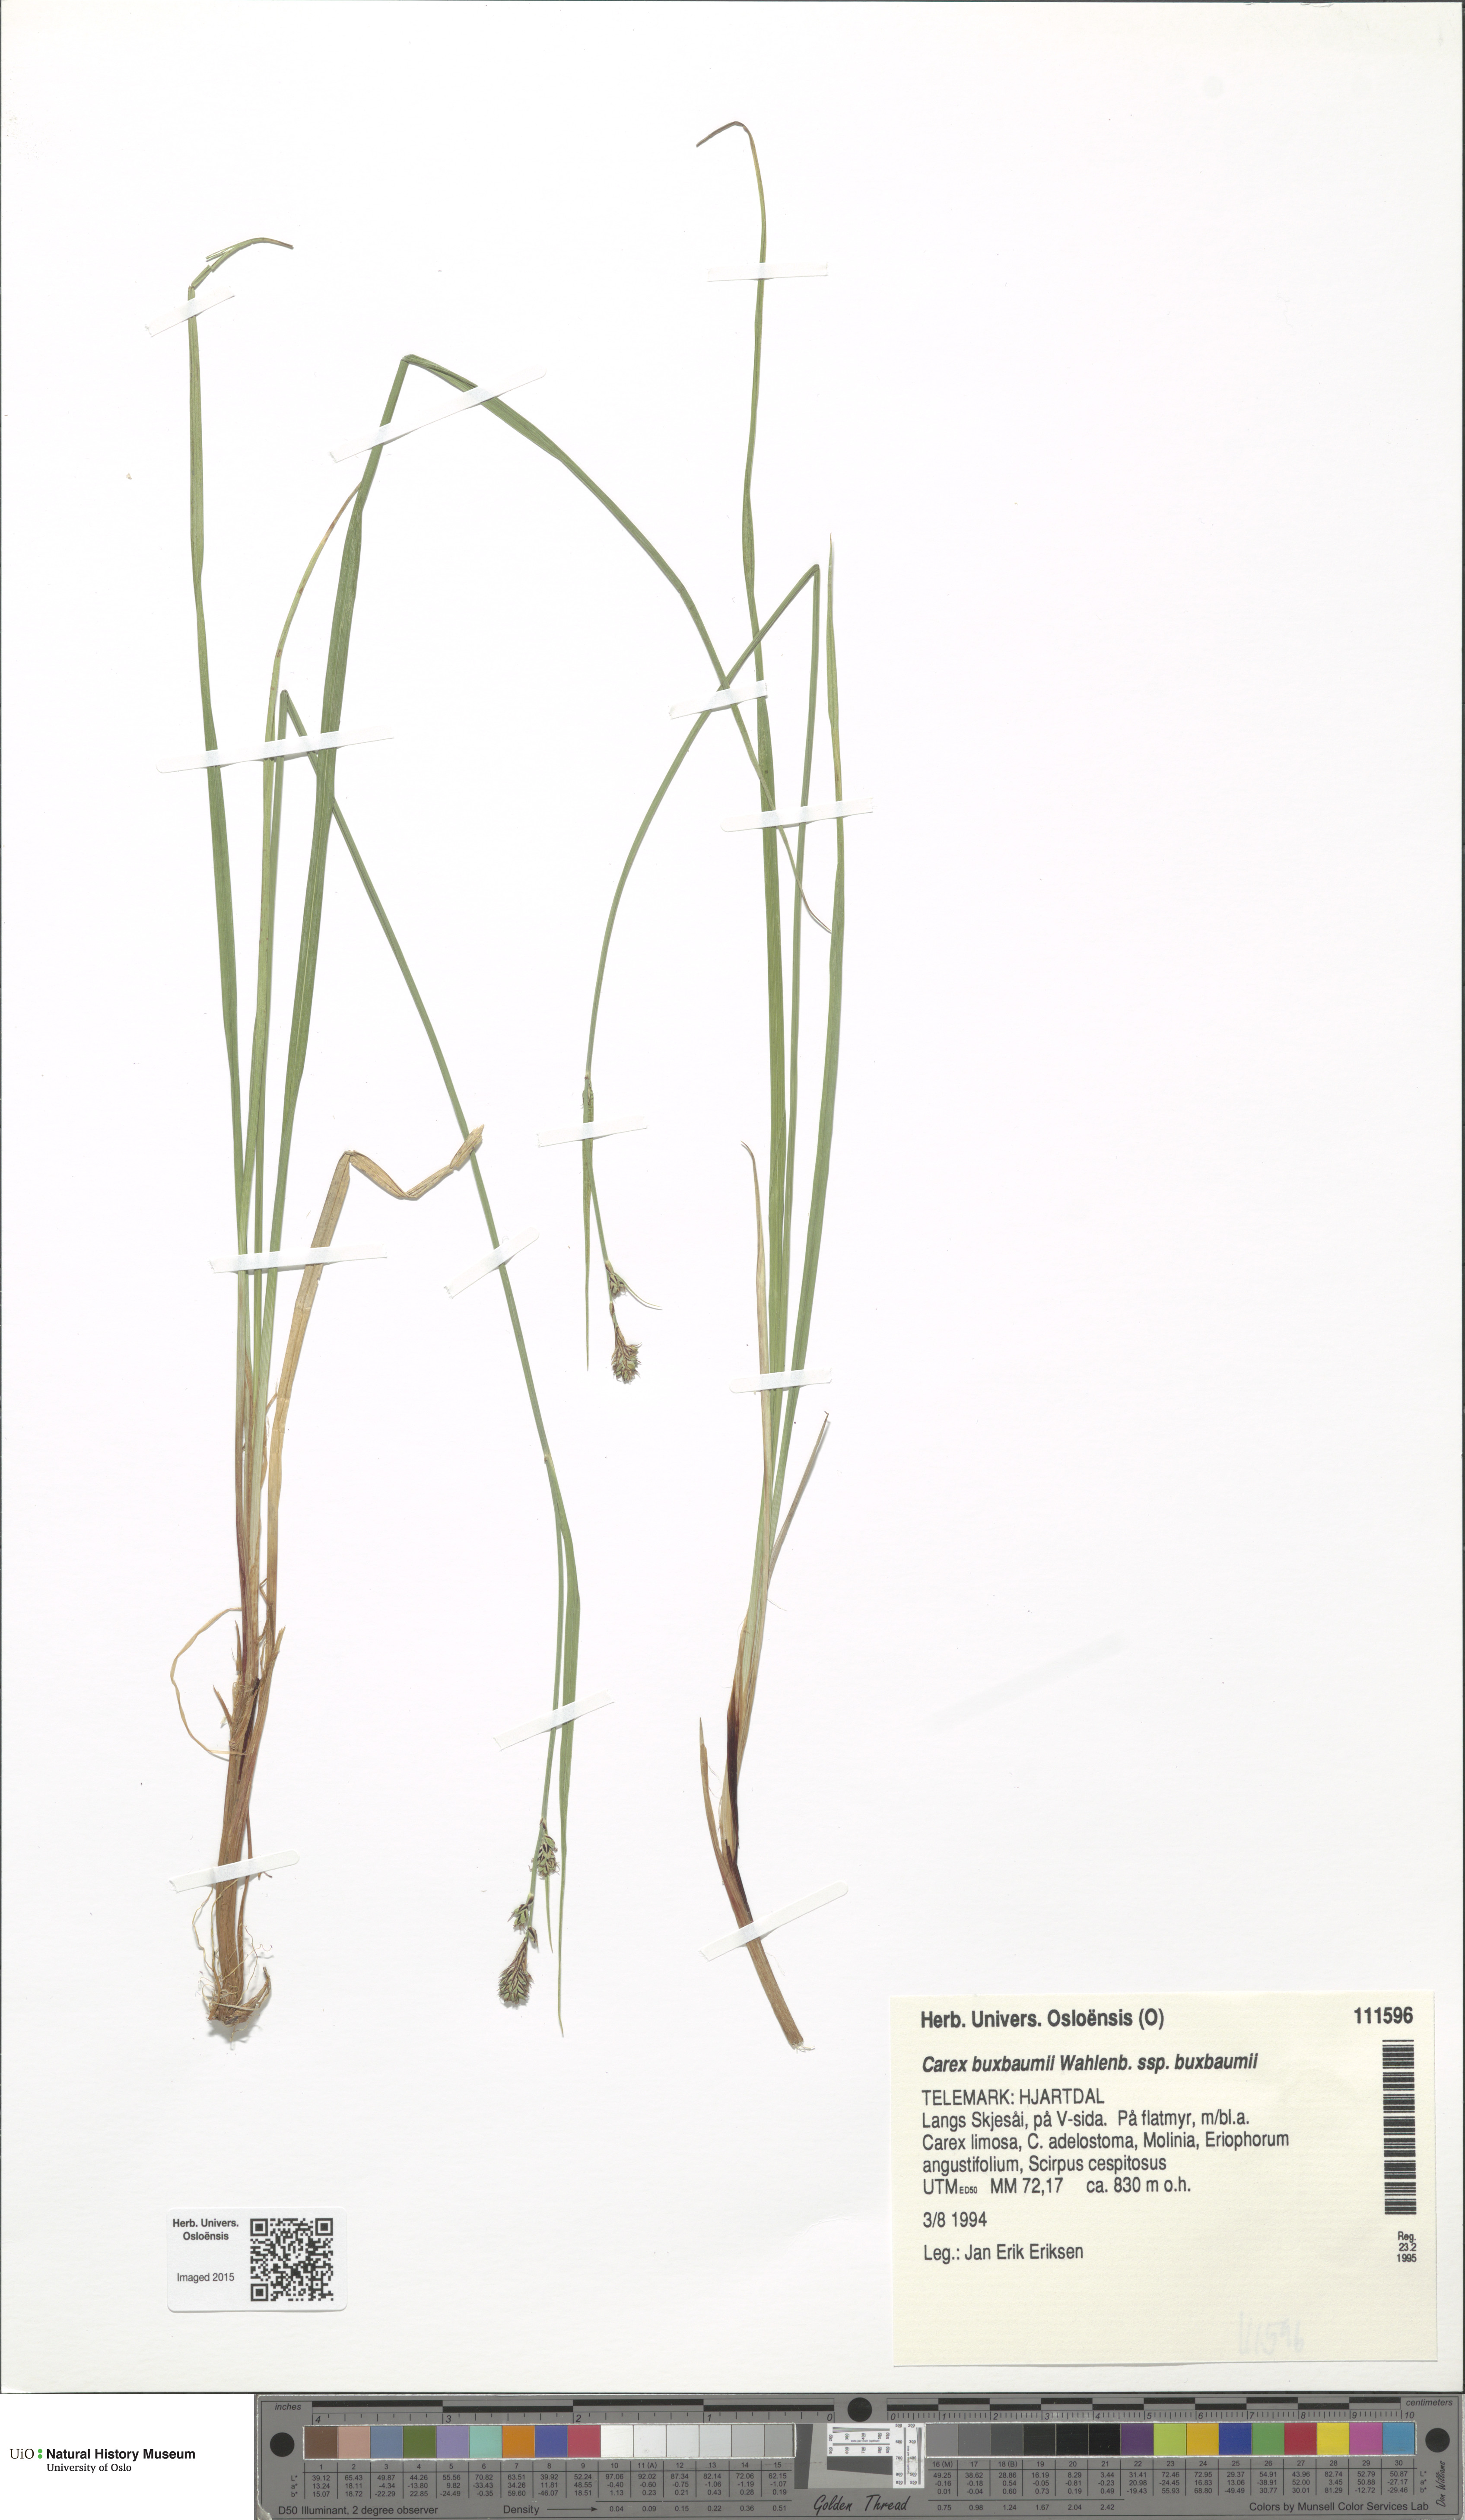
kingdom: Plantae
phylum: Tracheophyta
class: Liliopsida
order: Poales
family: Cyperaceae
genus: Carex
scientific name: Carex buxbaumii
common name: Club sedge
